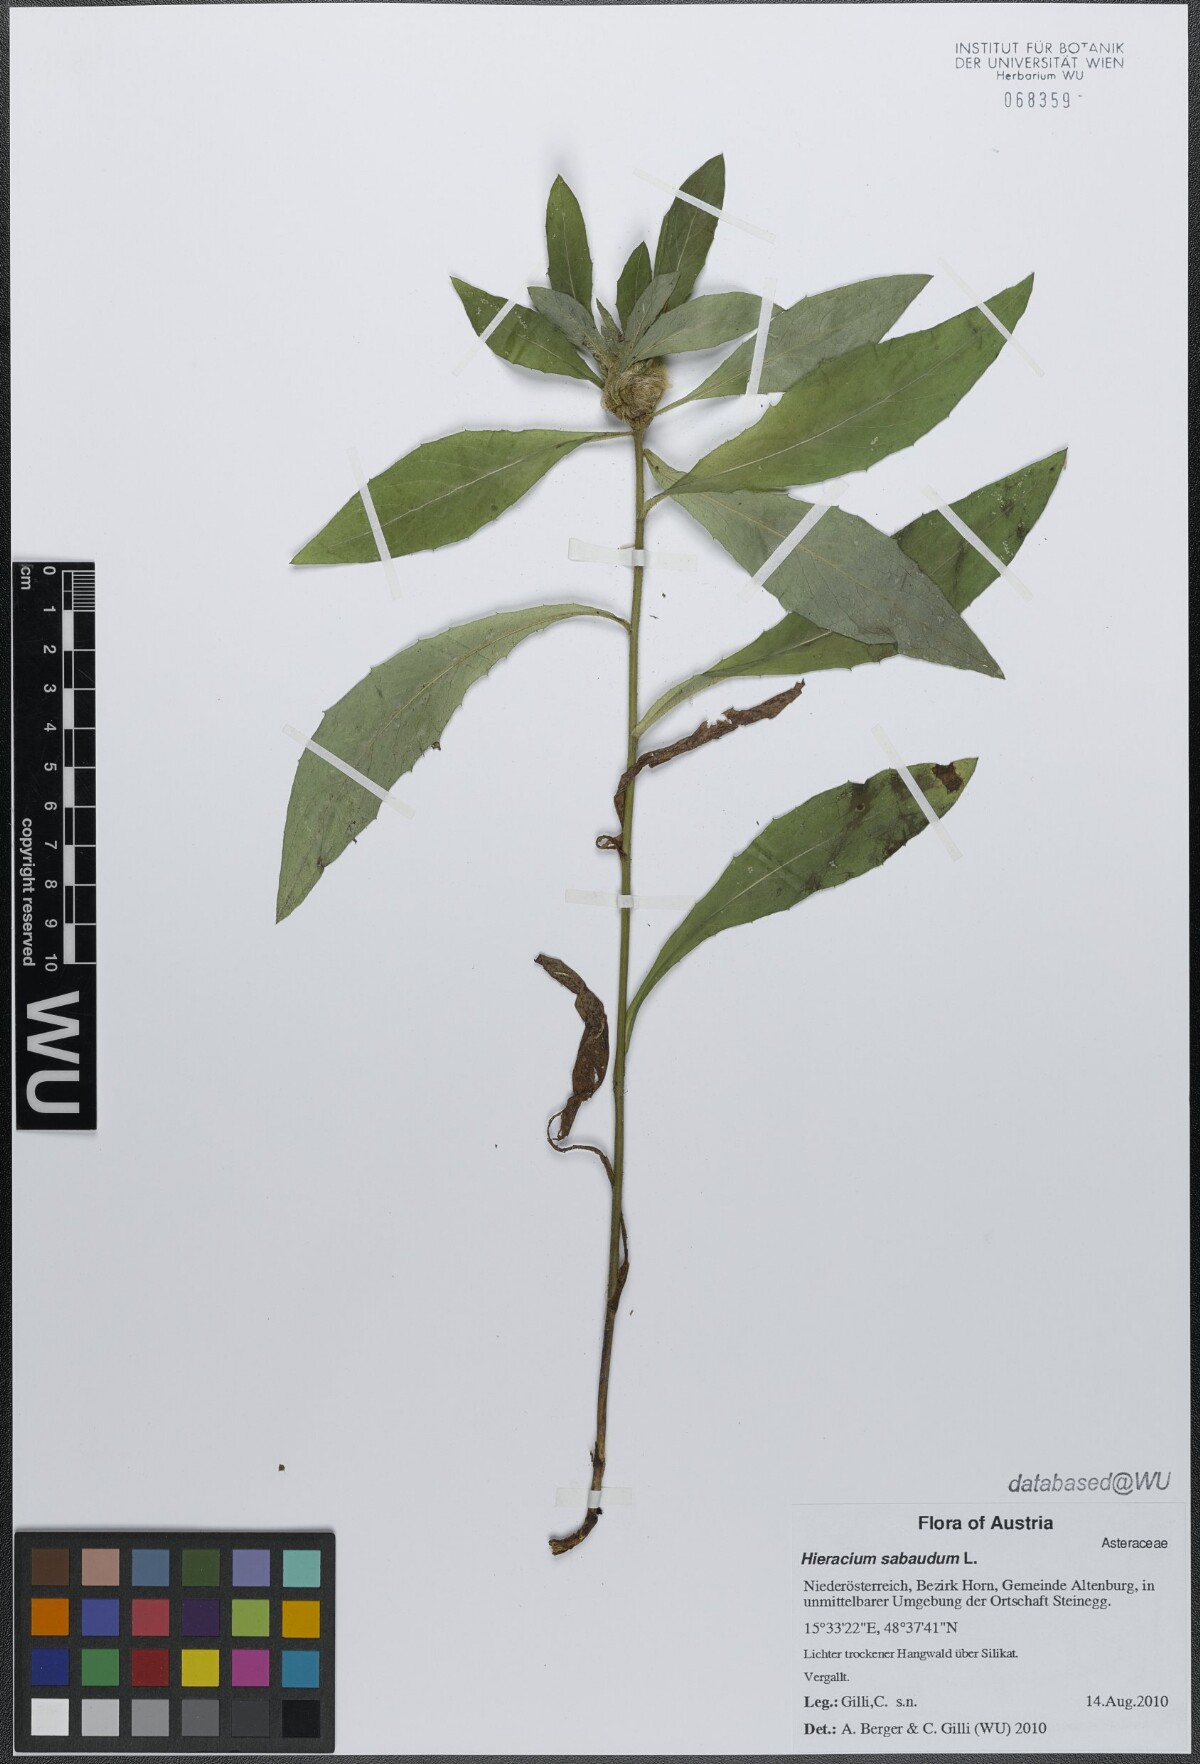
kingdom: Plantae
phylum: Tracheophyta
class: Magnoliopsida
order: Asterales
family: Asteraceae
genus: Hieracium
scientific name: Hieracium sabaudum
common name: New england hawkweed
